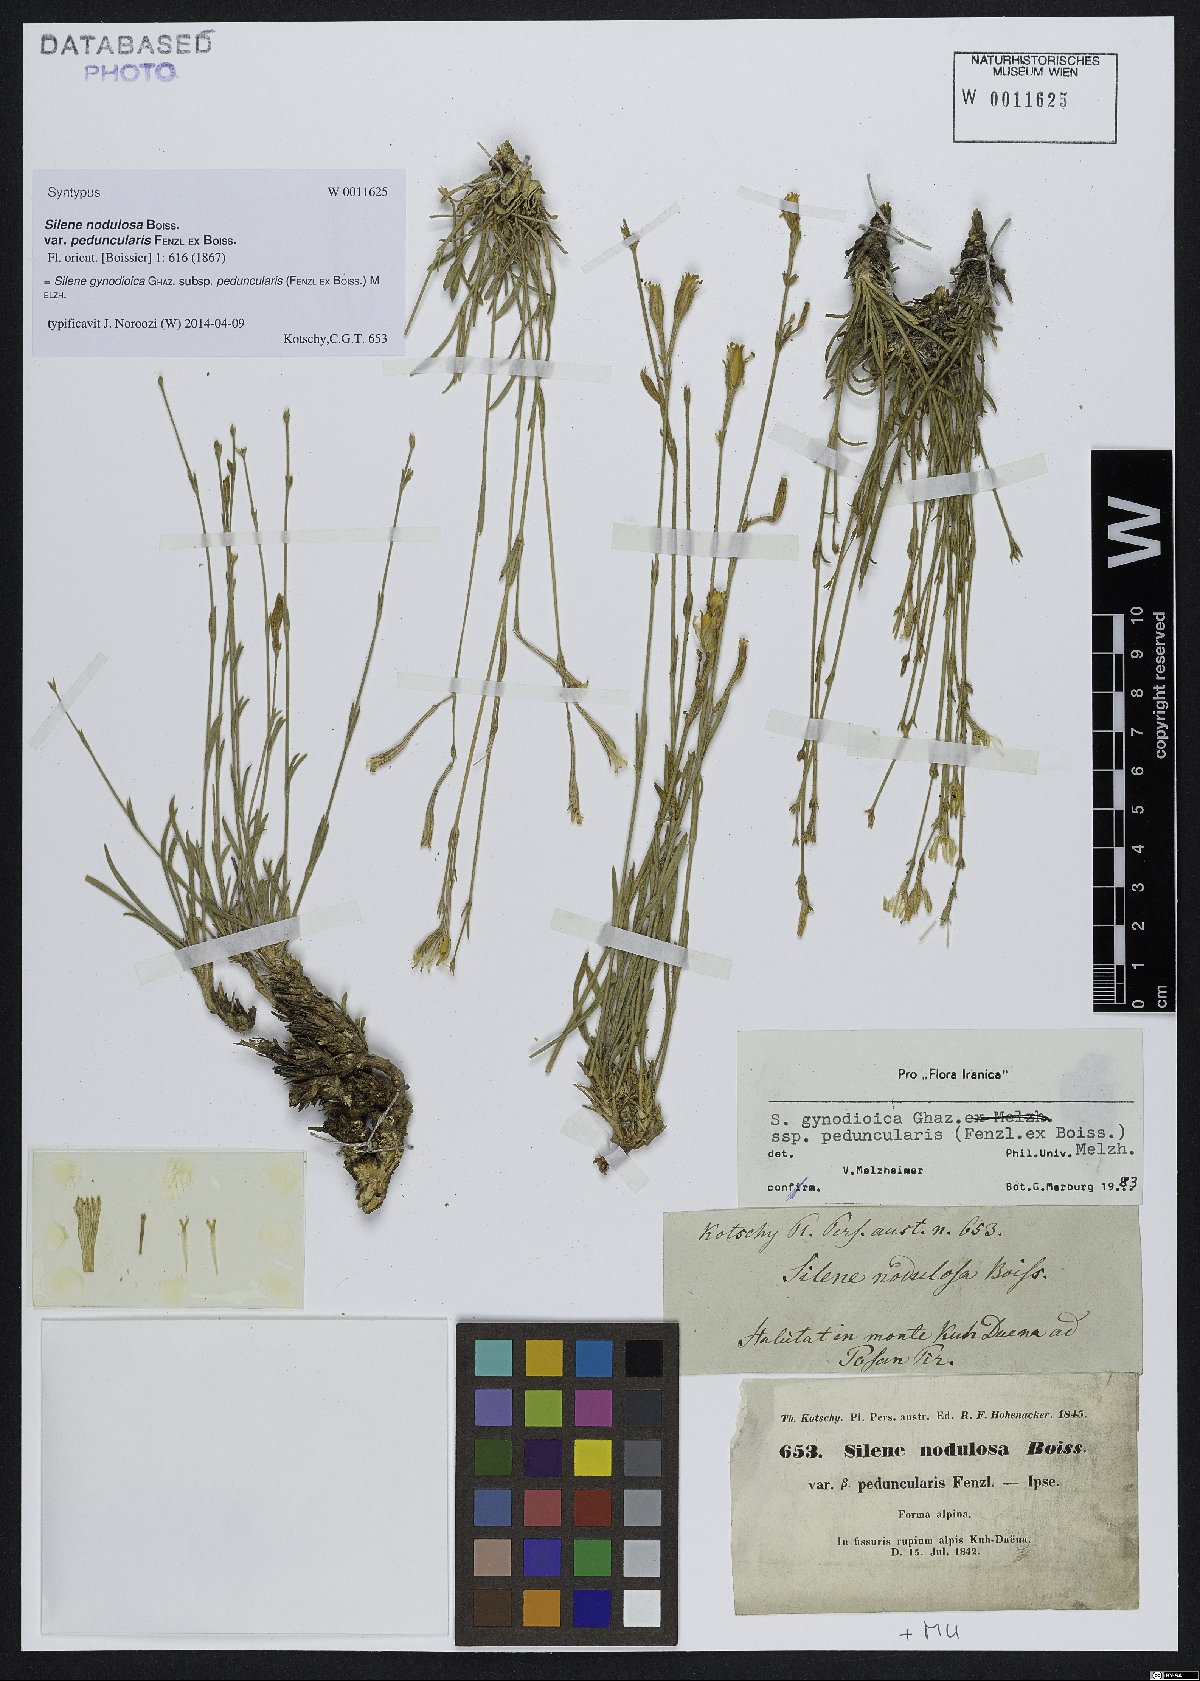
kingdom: Plantae
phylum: Tracheophyta
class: Magnoliopsida
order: Caryophyllales
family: Caryophyllaceae
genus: Silene
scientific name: Silene behboudiana
